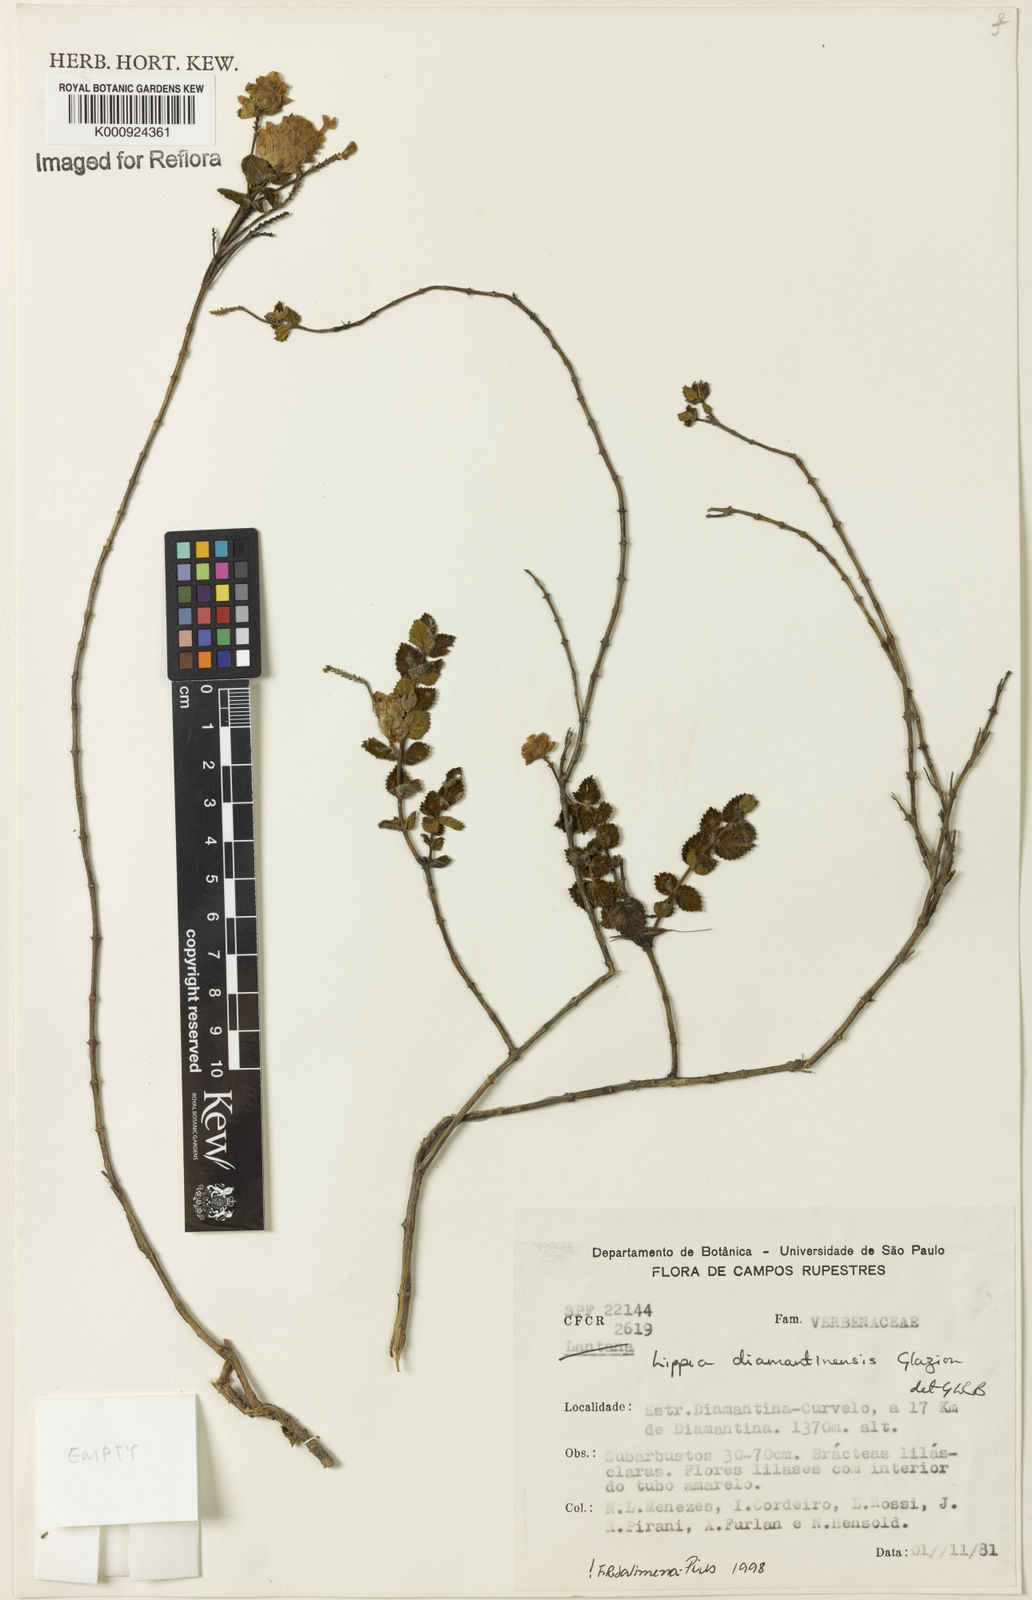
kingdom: Plantae
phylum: Tracheophyta
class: Magnoliopsida
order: Lamiales
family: Verbenaceae
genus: Lippia
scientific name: Lippia diamantinensis
